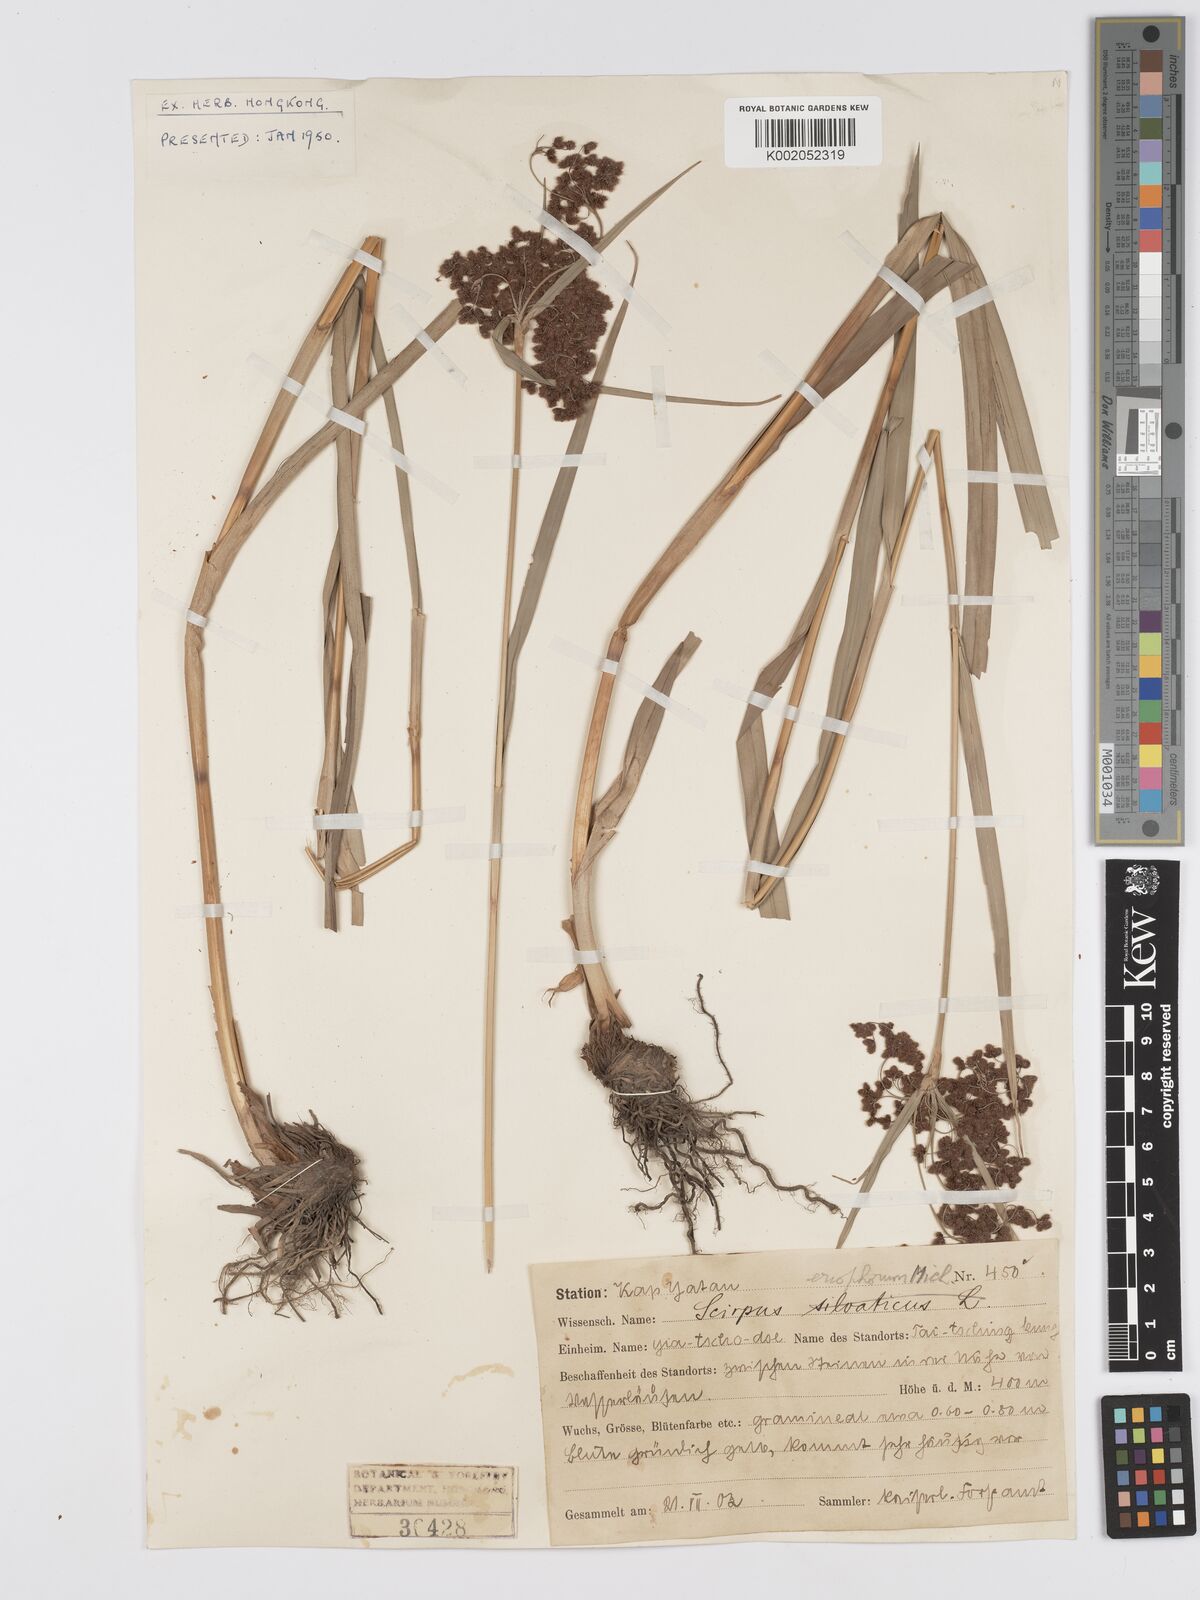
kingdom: Plantae
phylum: Tracheophyta
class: Liliopsida
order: Poales
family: Cyperaceae
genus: Scirpus
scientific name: Scirpus cyperinus
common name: Black-sheathed bulrush
